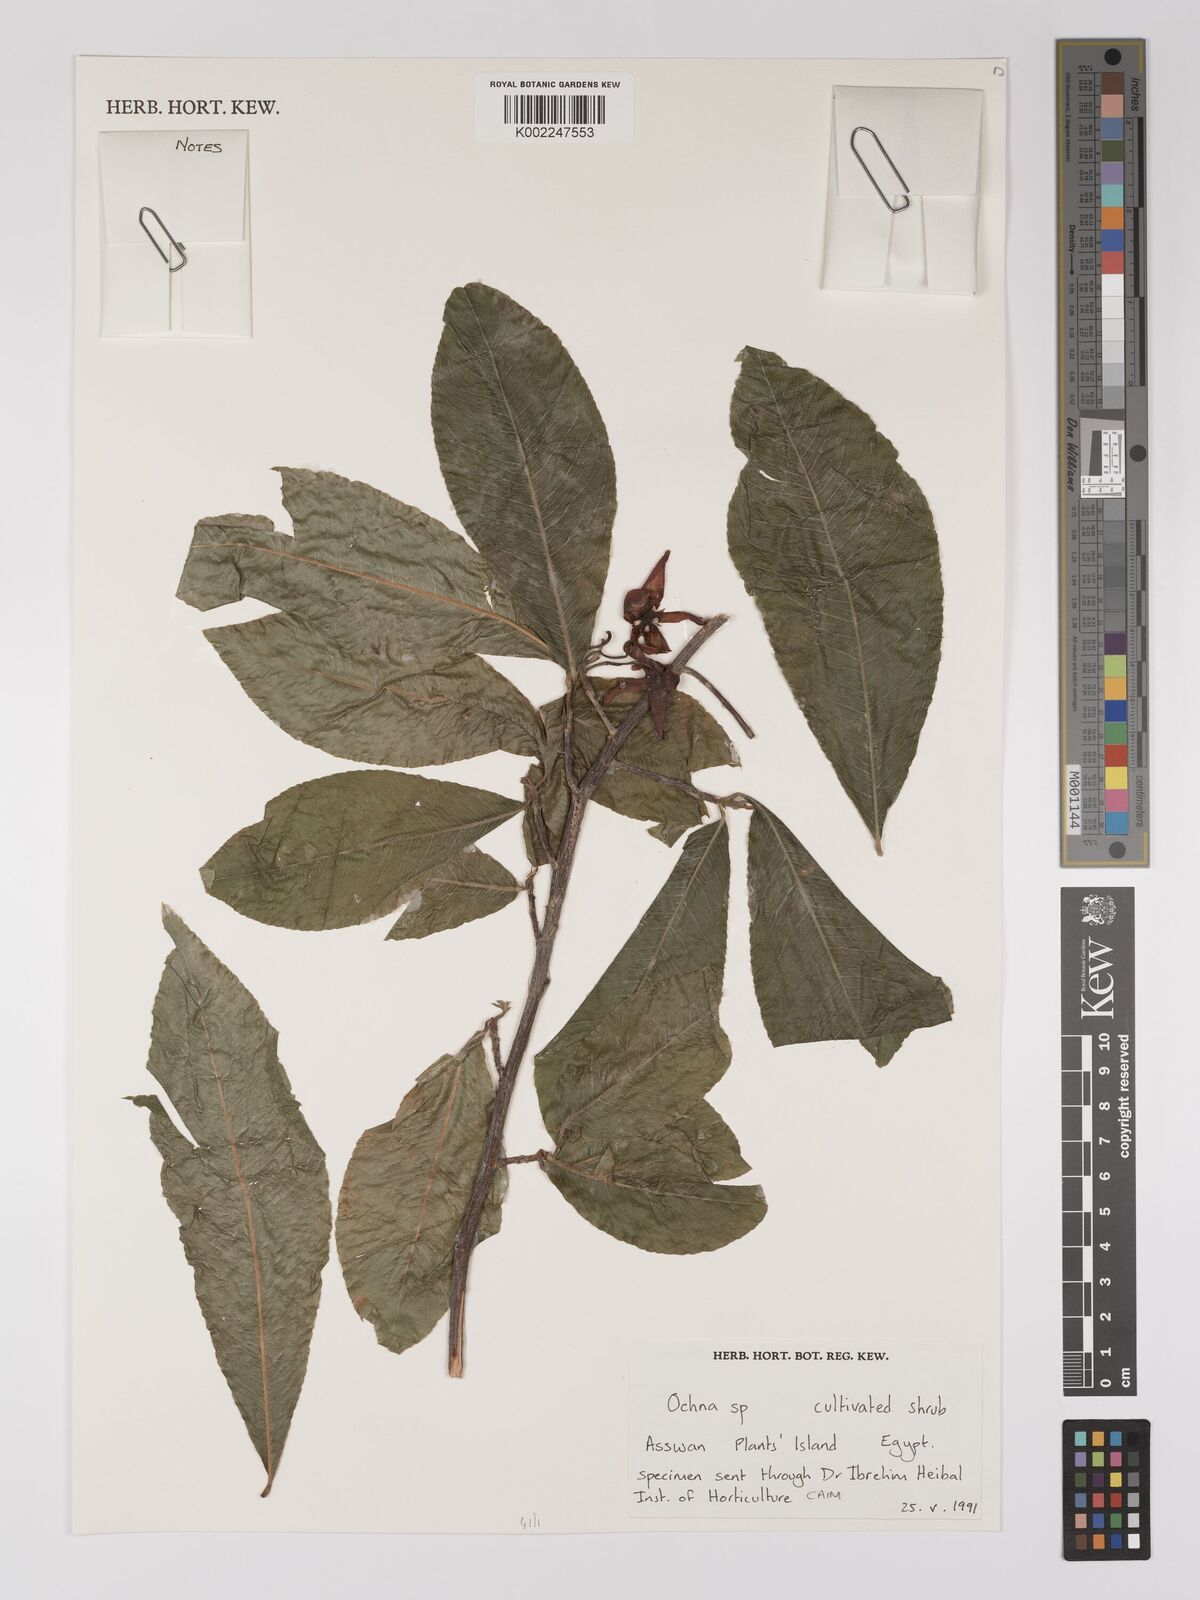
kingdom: Plantae
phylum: Tracheophyta
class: Magnoliopsida
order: Malpighiales
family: Ochnaceae
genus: Ochna
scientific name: Ochna
